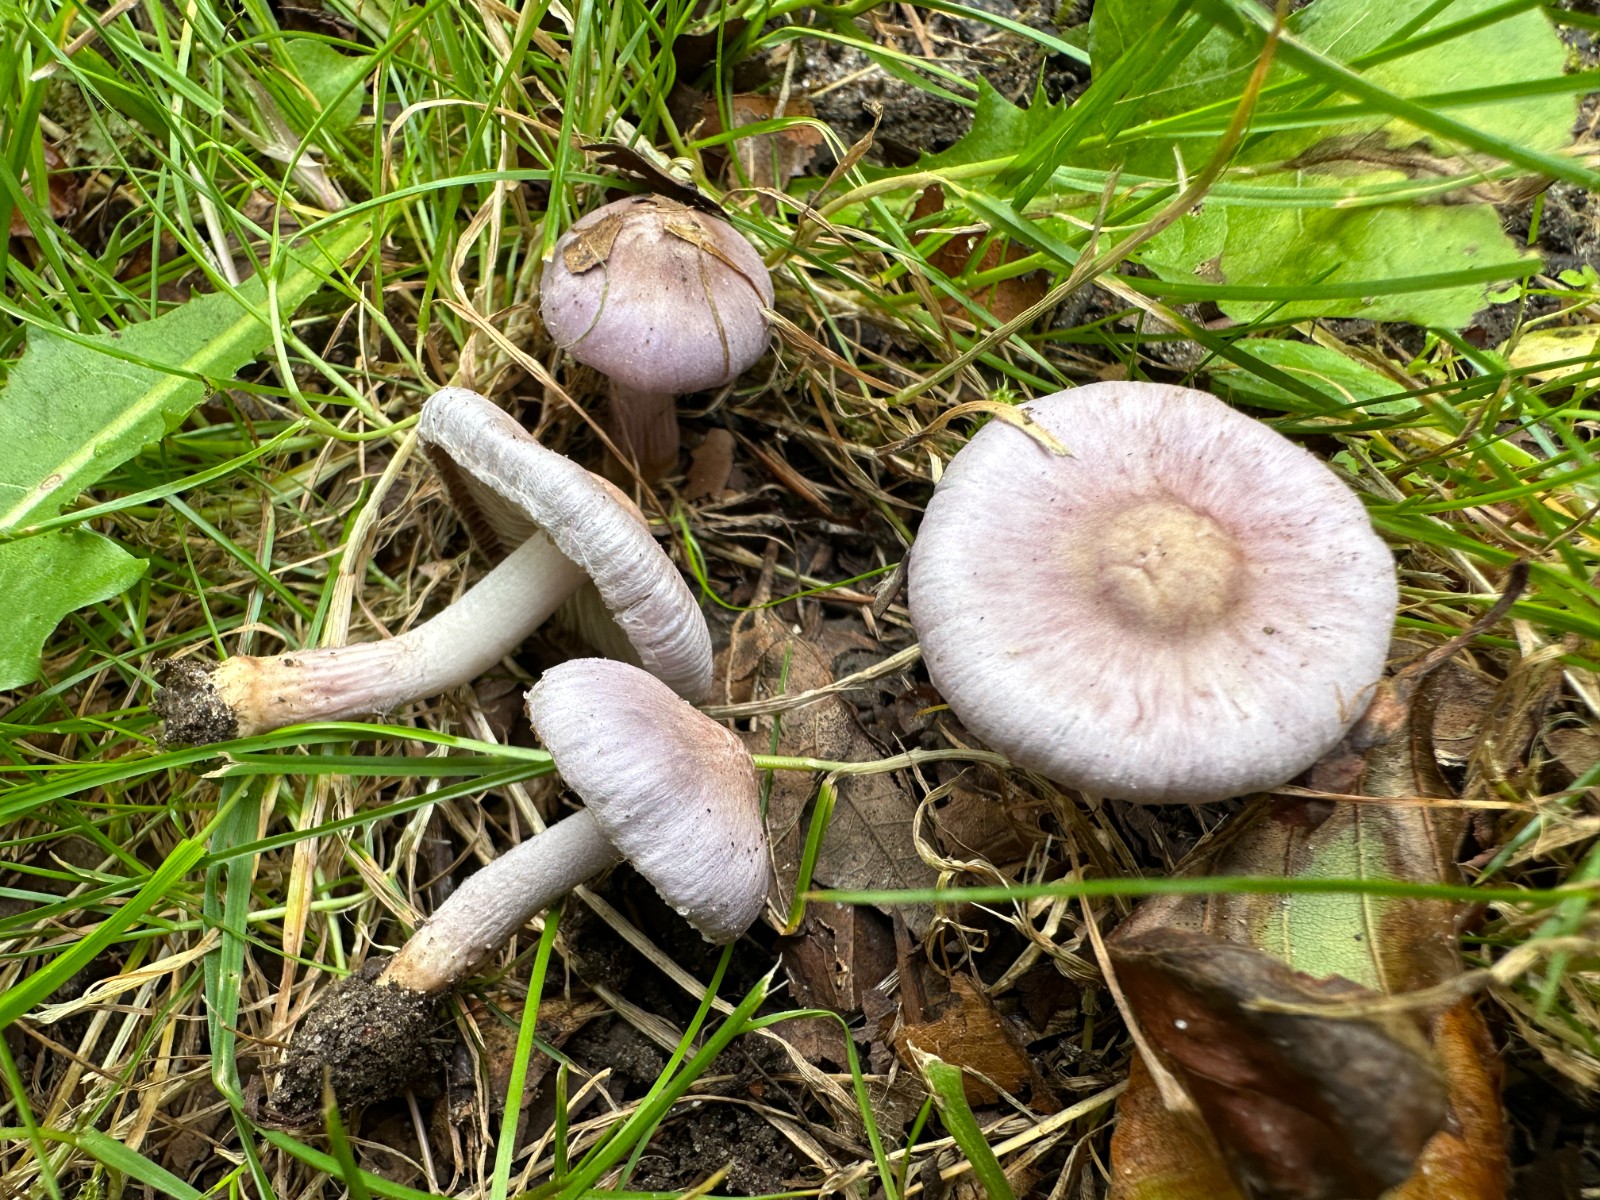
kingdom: Fungi
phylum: Basidiomycota
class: Agaricomycetes
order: Agaricales
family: Inocybaceae
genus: Inocybe
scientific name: Inocybe geophylla
